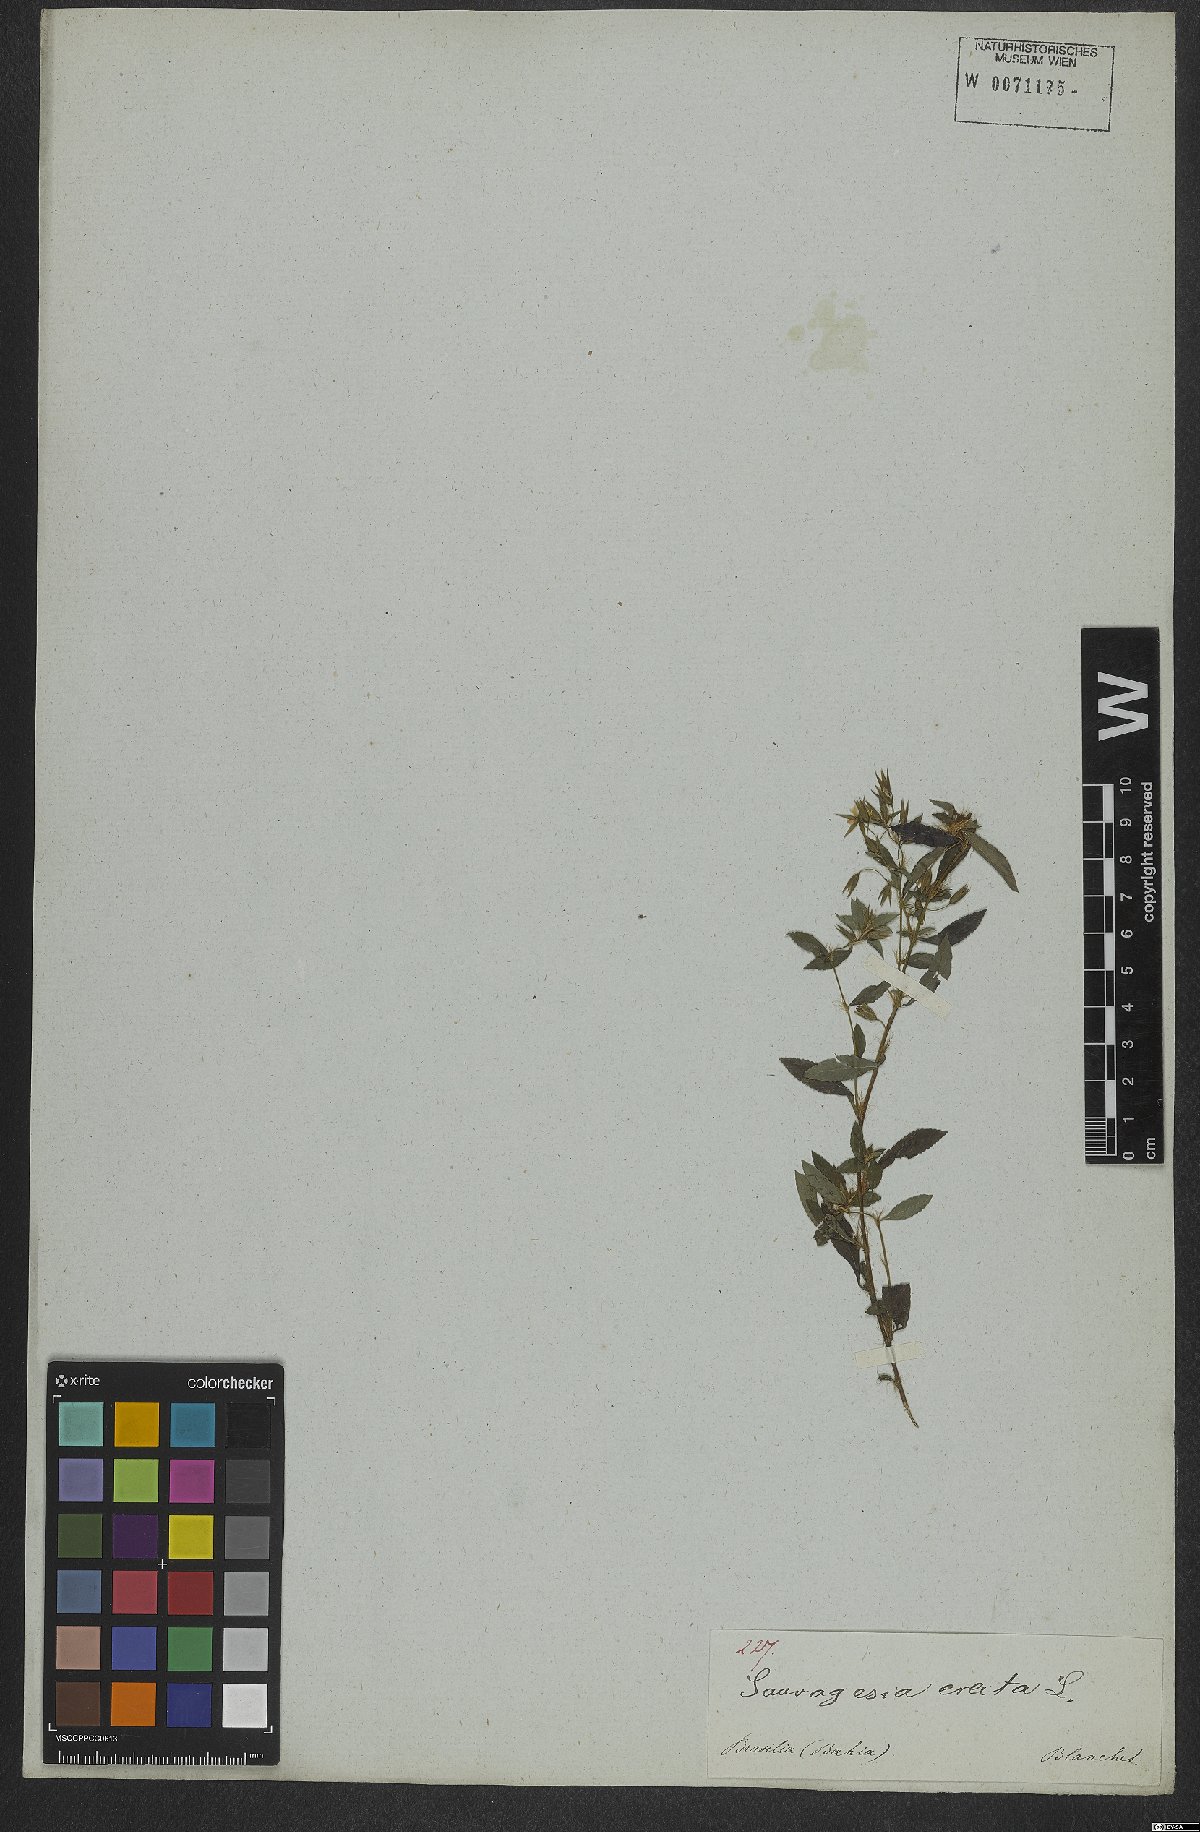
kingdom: Plantae
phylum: Tracheophyta
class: Magnoliopsida
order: Malpighiales
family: Ochnaceae
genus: Sauvagesia
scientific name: Sauvagesia erecta
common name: Creole tea
